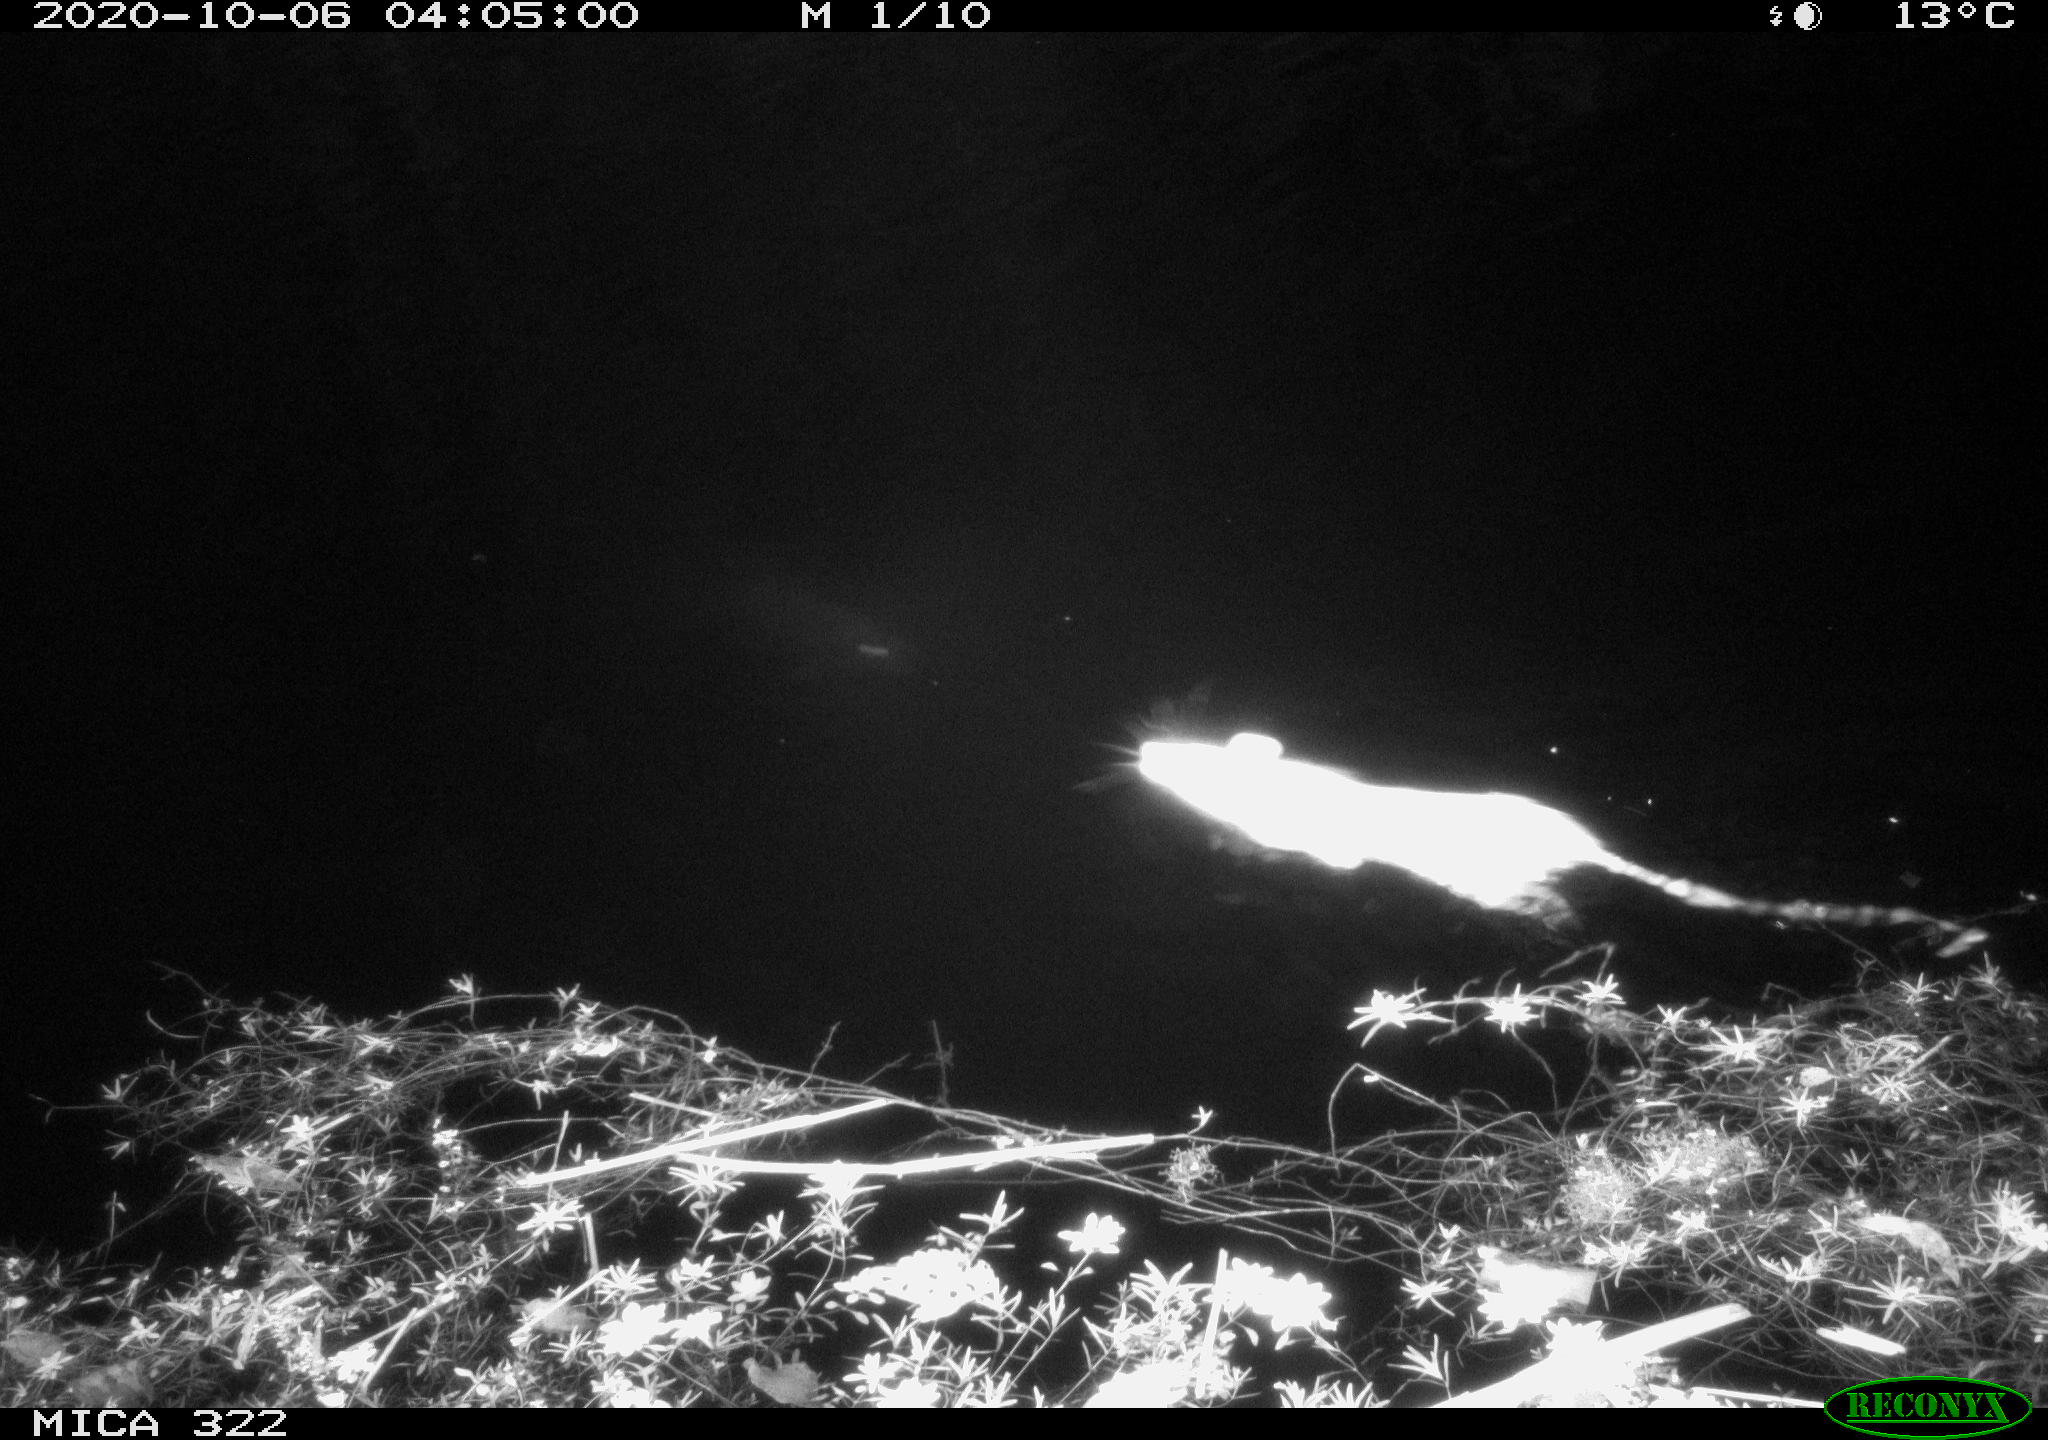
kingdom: Animalia
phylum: Chordata
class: Mammalia
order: Rodentia
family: Muridae
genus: Rattus
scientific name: Rattus norvegicus
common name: Brown rat
